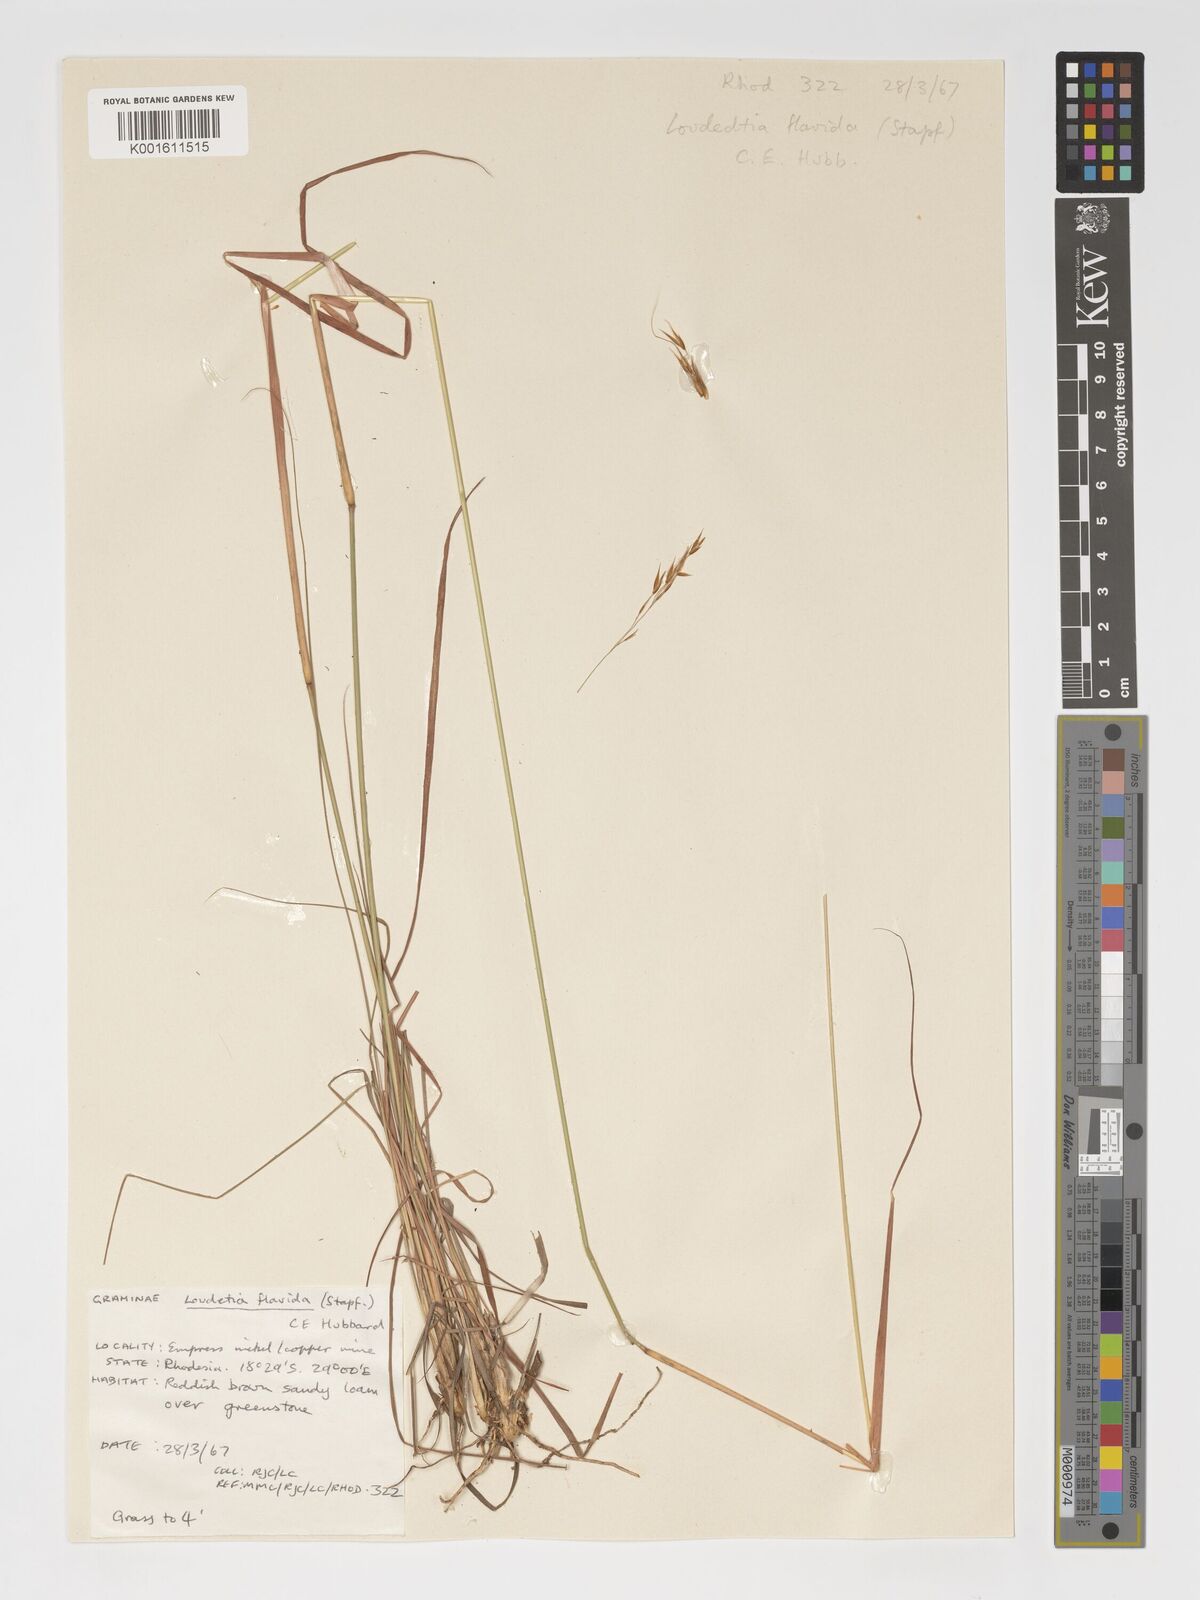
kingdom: Plantae
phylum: Tracheophyta
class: Liliopsida
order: Poales
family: Poaceae
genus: Loudetia
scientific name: Loudetia flavida
